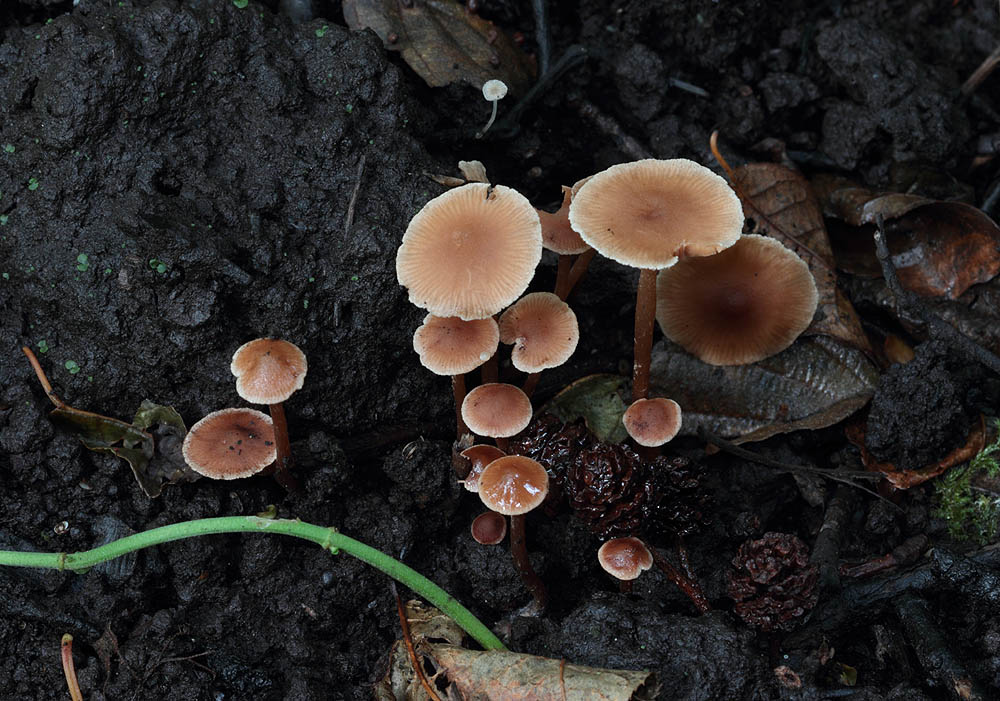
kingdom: Fungi
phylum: Basidiomycota
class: Agaricomycetes
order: Agaricales
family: Hymenogastraceae
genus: Naucoria
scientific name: Naucoria scolecina
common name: mørk elle-knaphat
